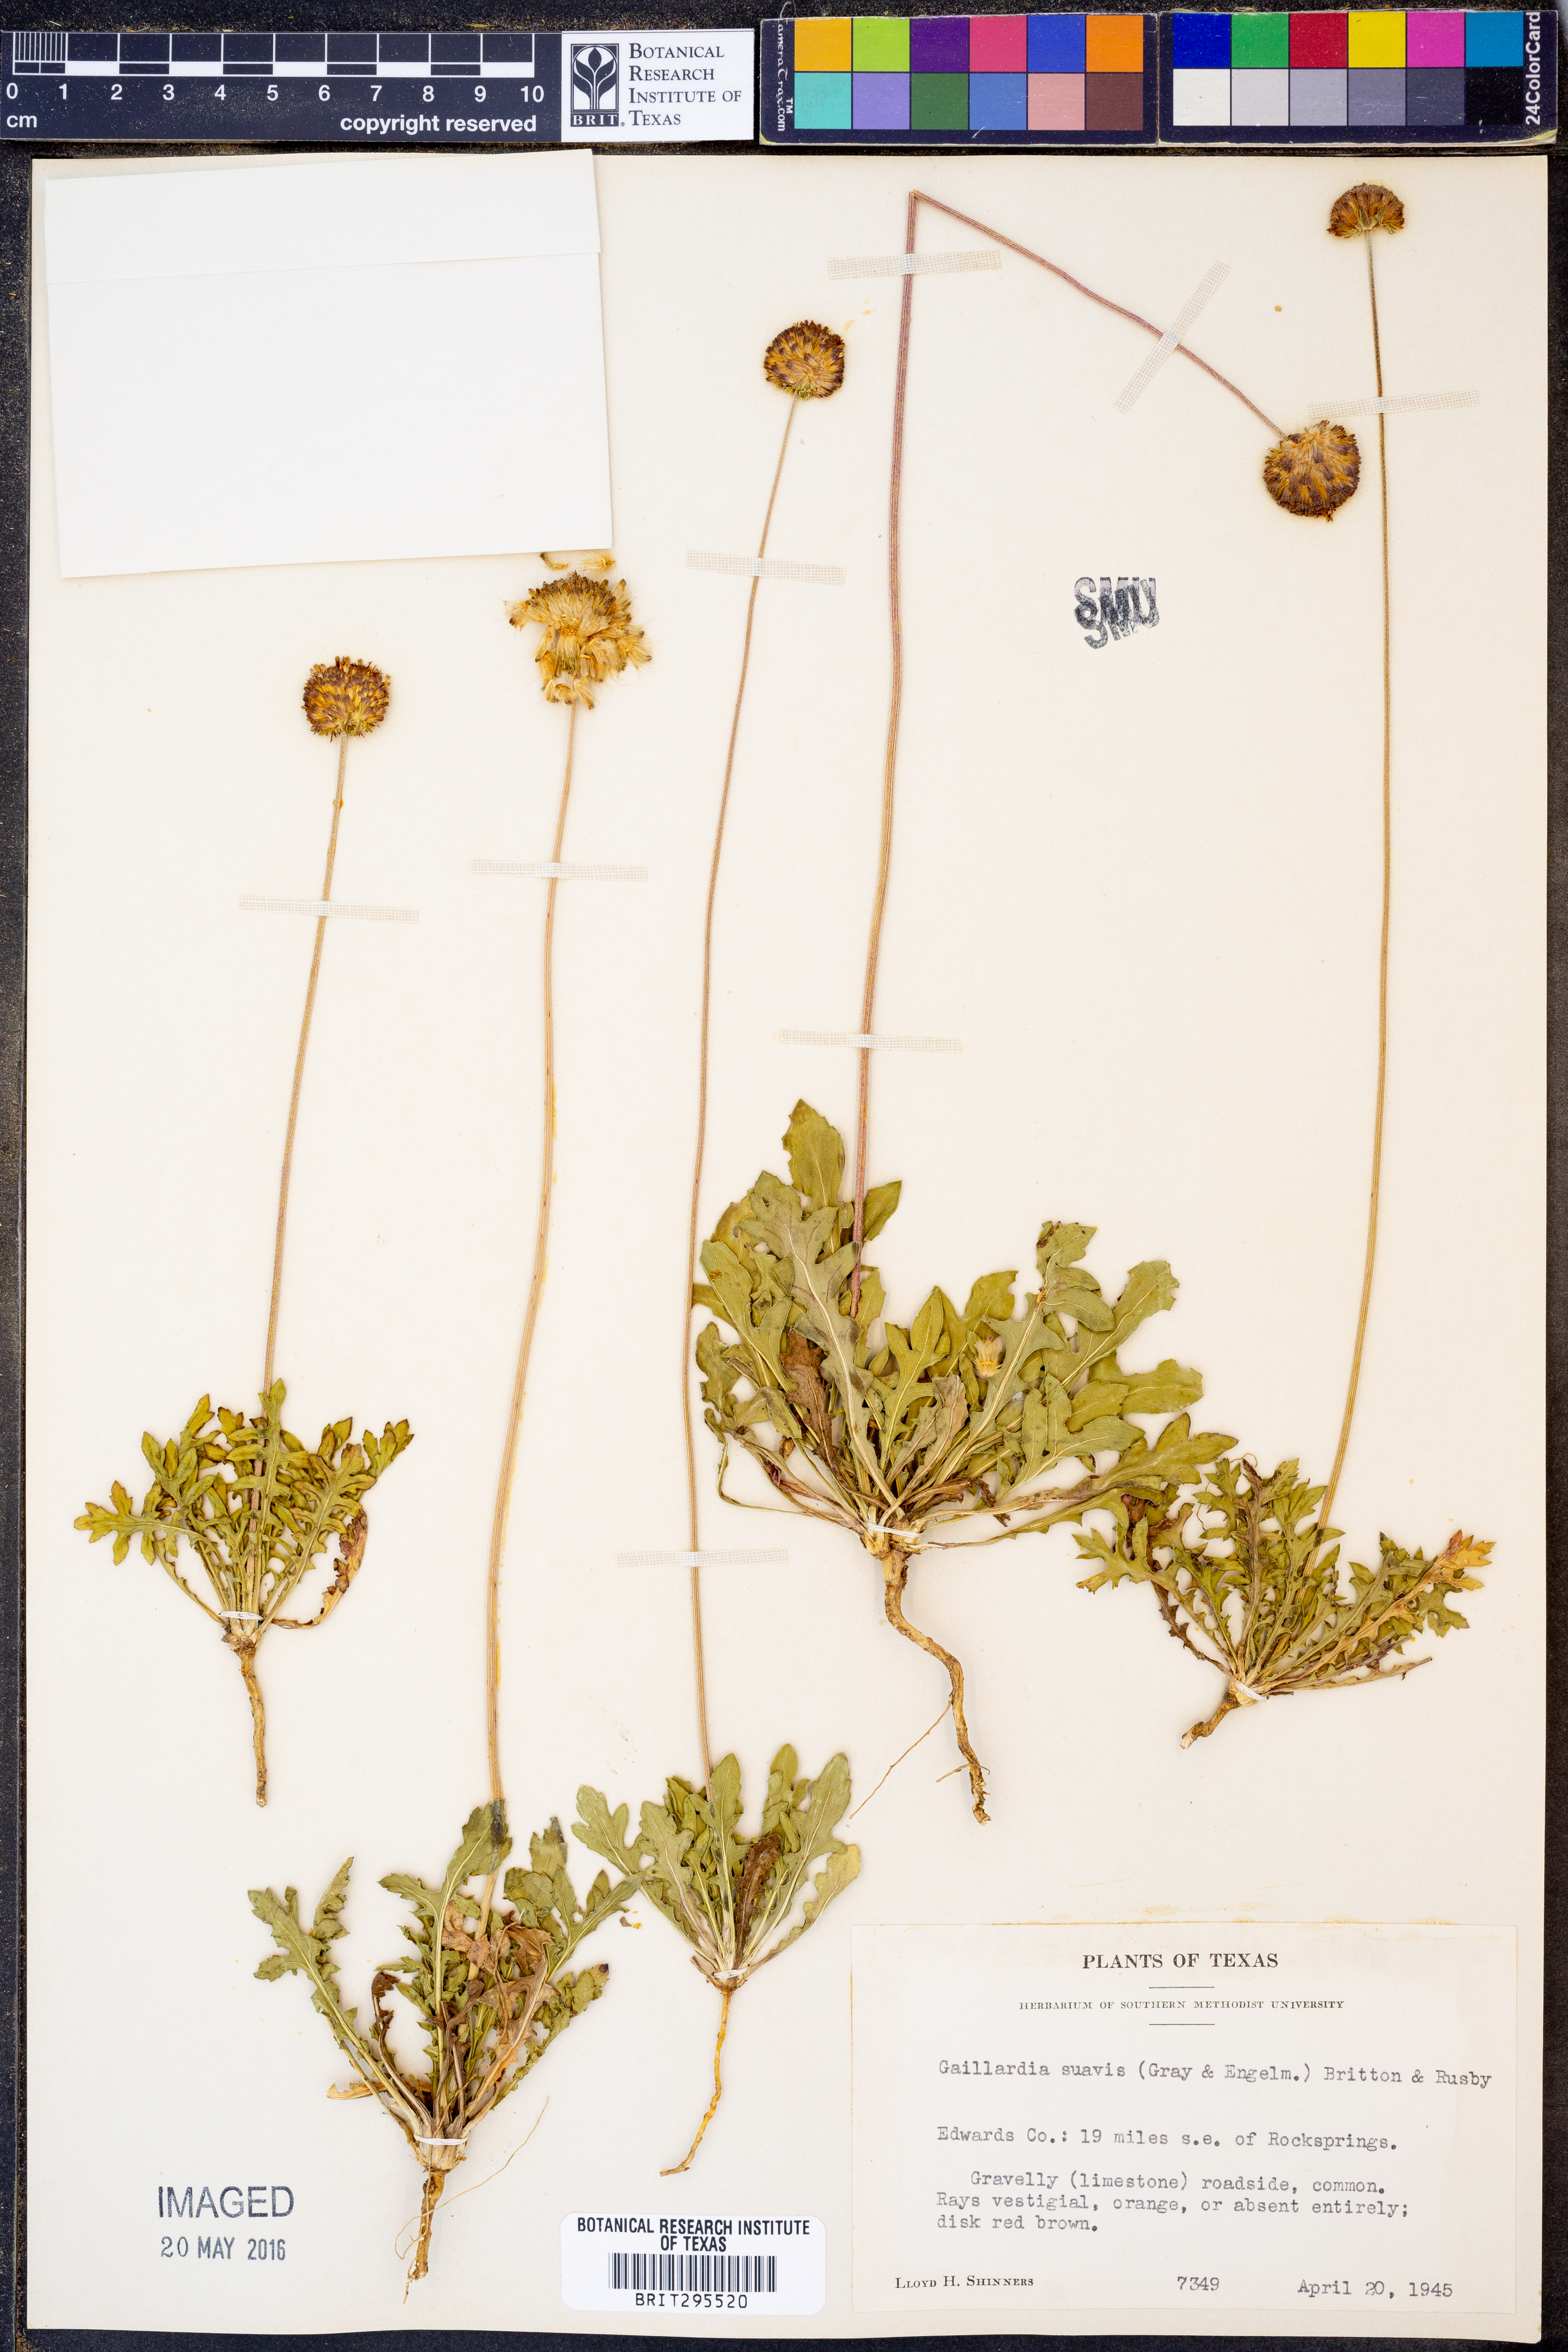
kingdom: Plantae
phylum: Tracheophyta
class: Magnoliopsida
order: Asterales
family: Asteraceae
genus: Gaillardia
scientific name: Gaillardia suavis
